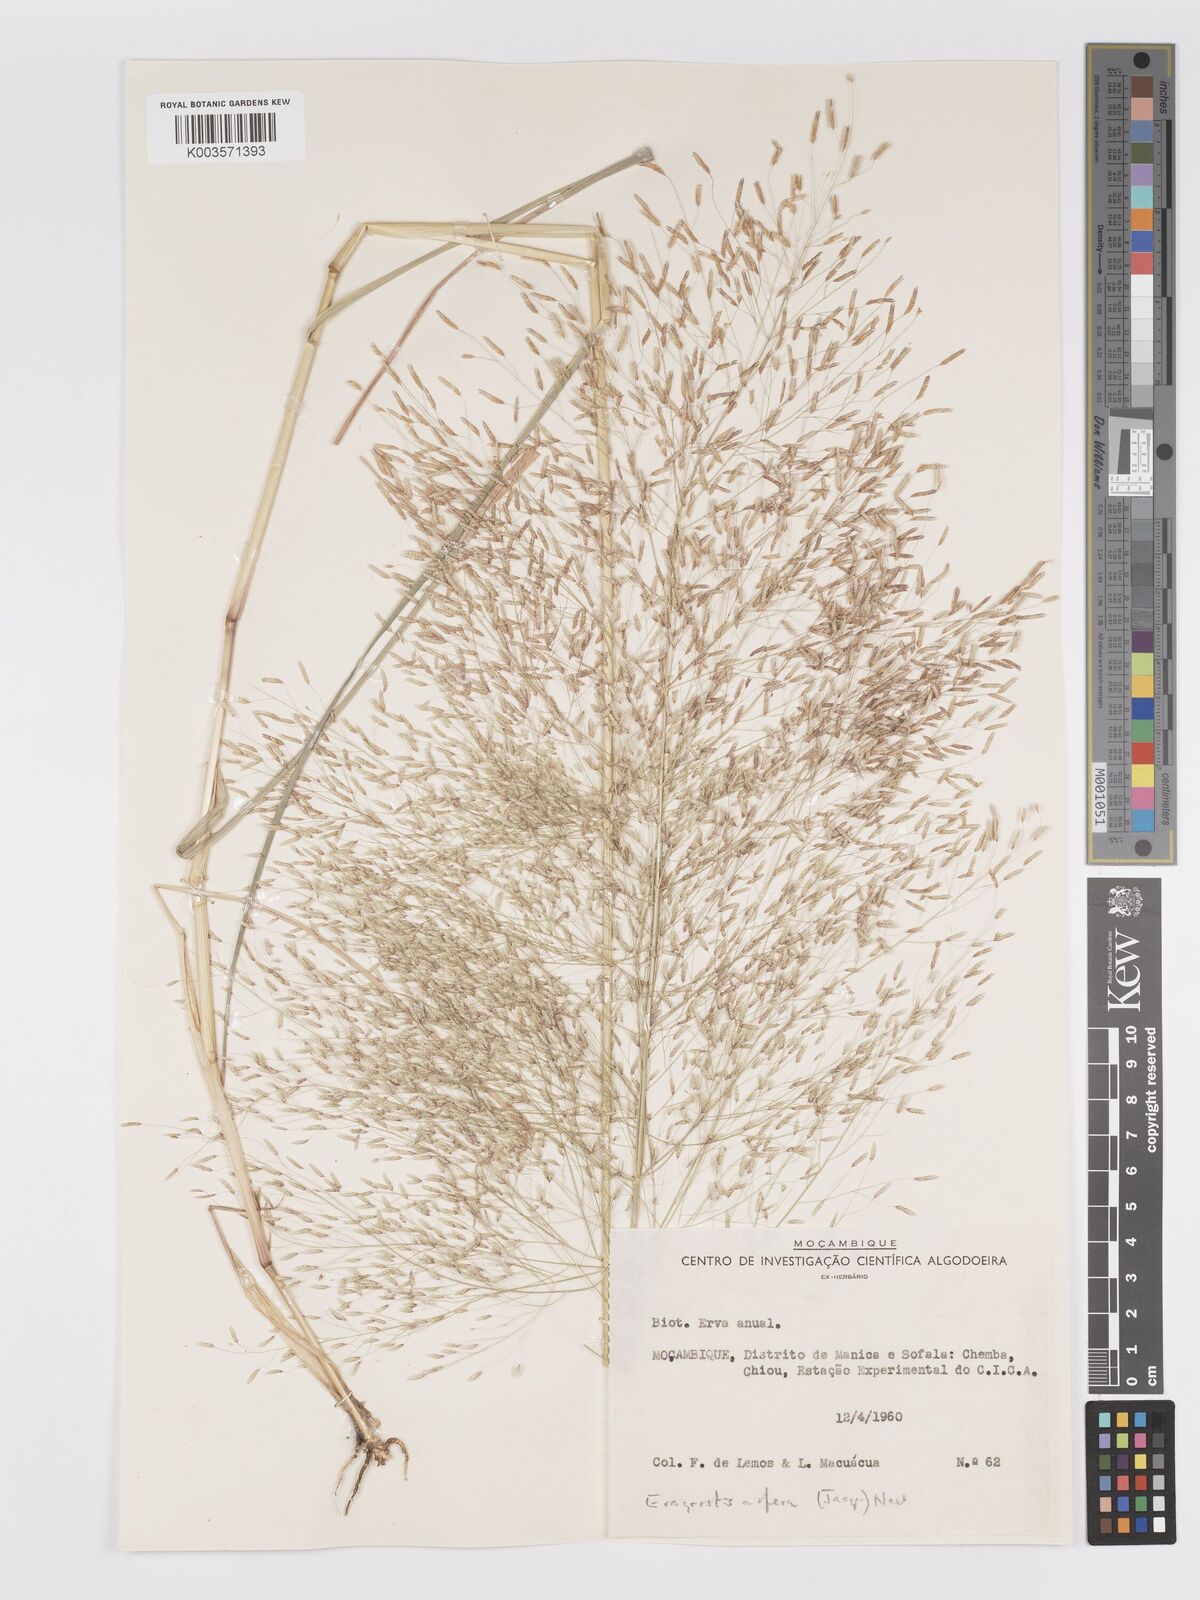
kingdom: Plantae
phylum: Tracheophyta
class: Liliopsida
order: Poales
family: Poaceae
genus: Eragrostis
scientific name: Eragrostis aspera
